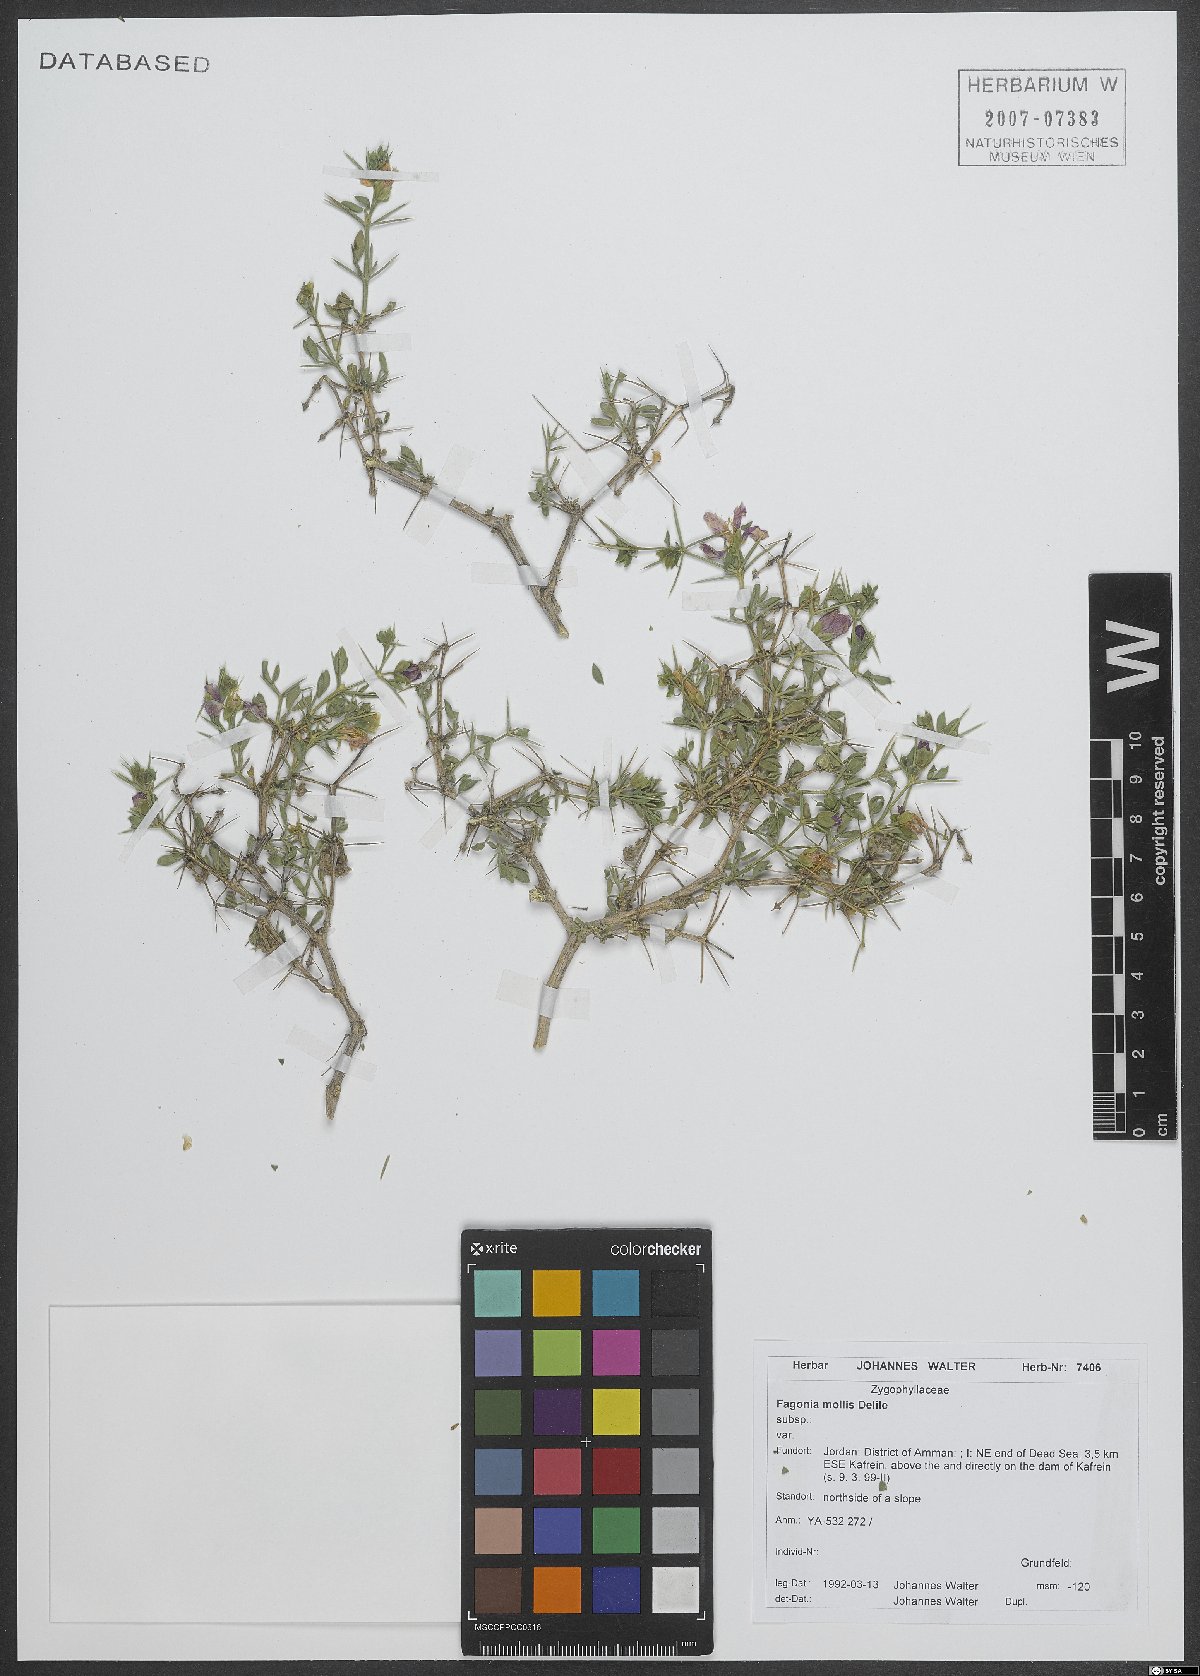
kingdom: Plantae
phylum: Tracheophyta
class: Magnoliopsida
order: Zygophyllales
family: Zygophyllaceae
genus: Fagonia
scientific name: Fagonia mollis
